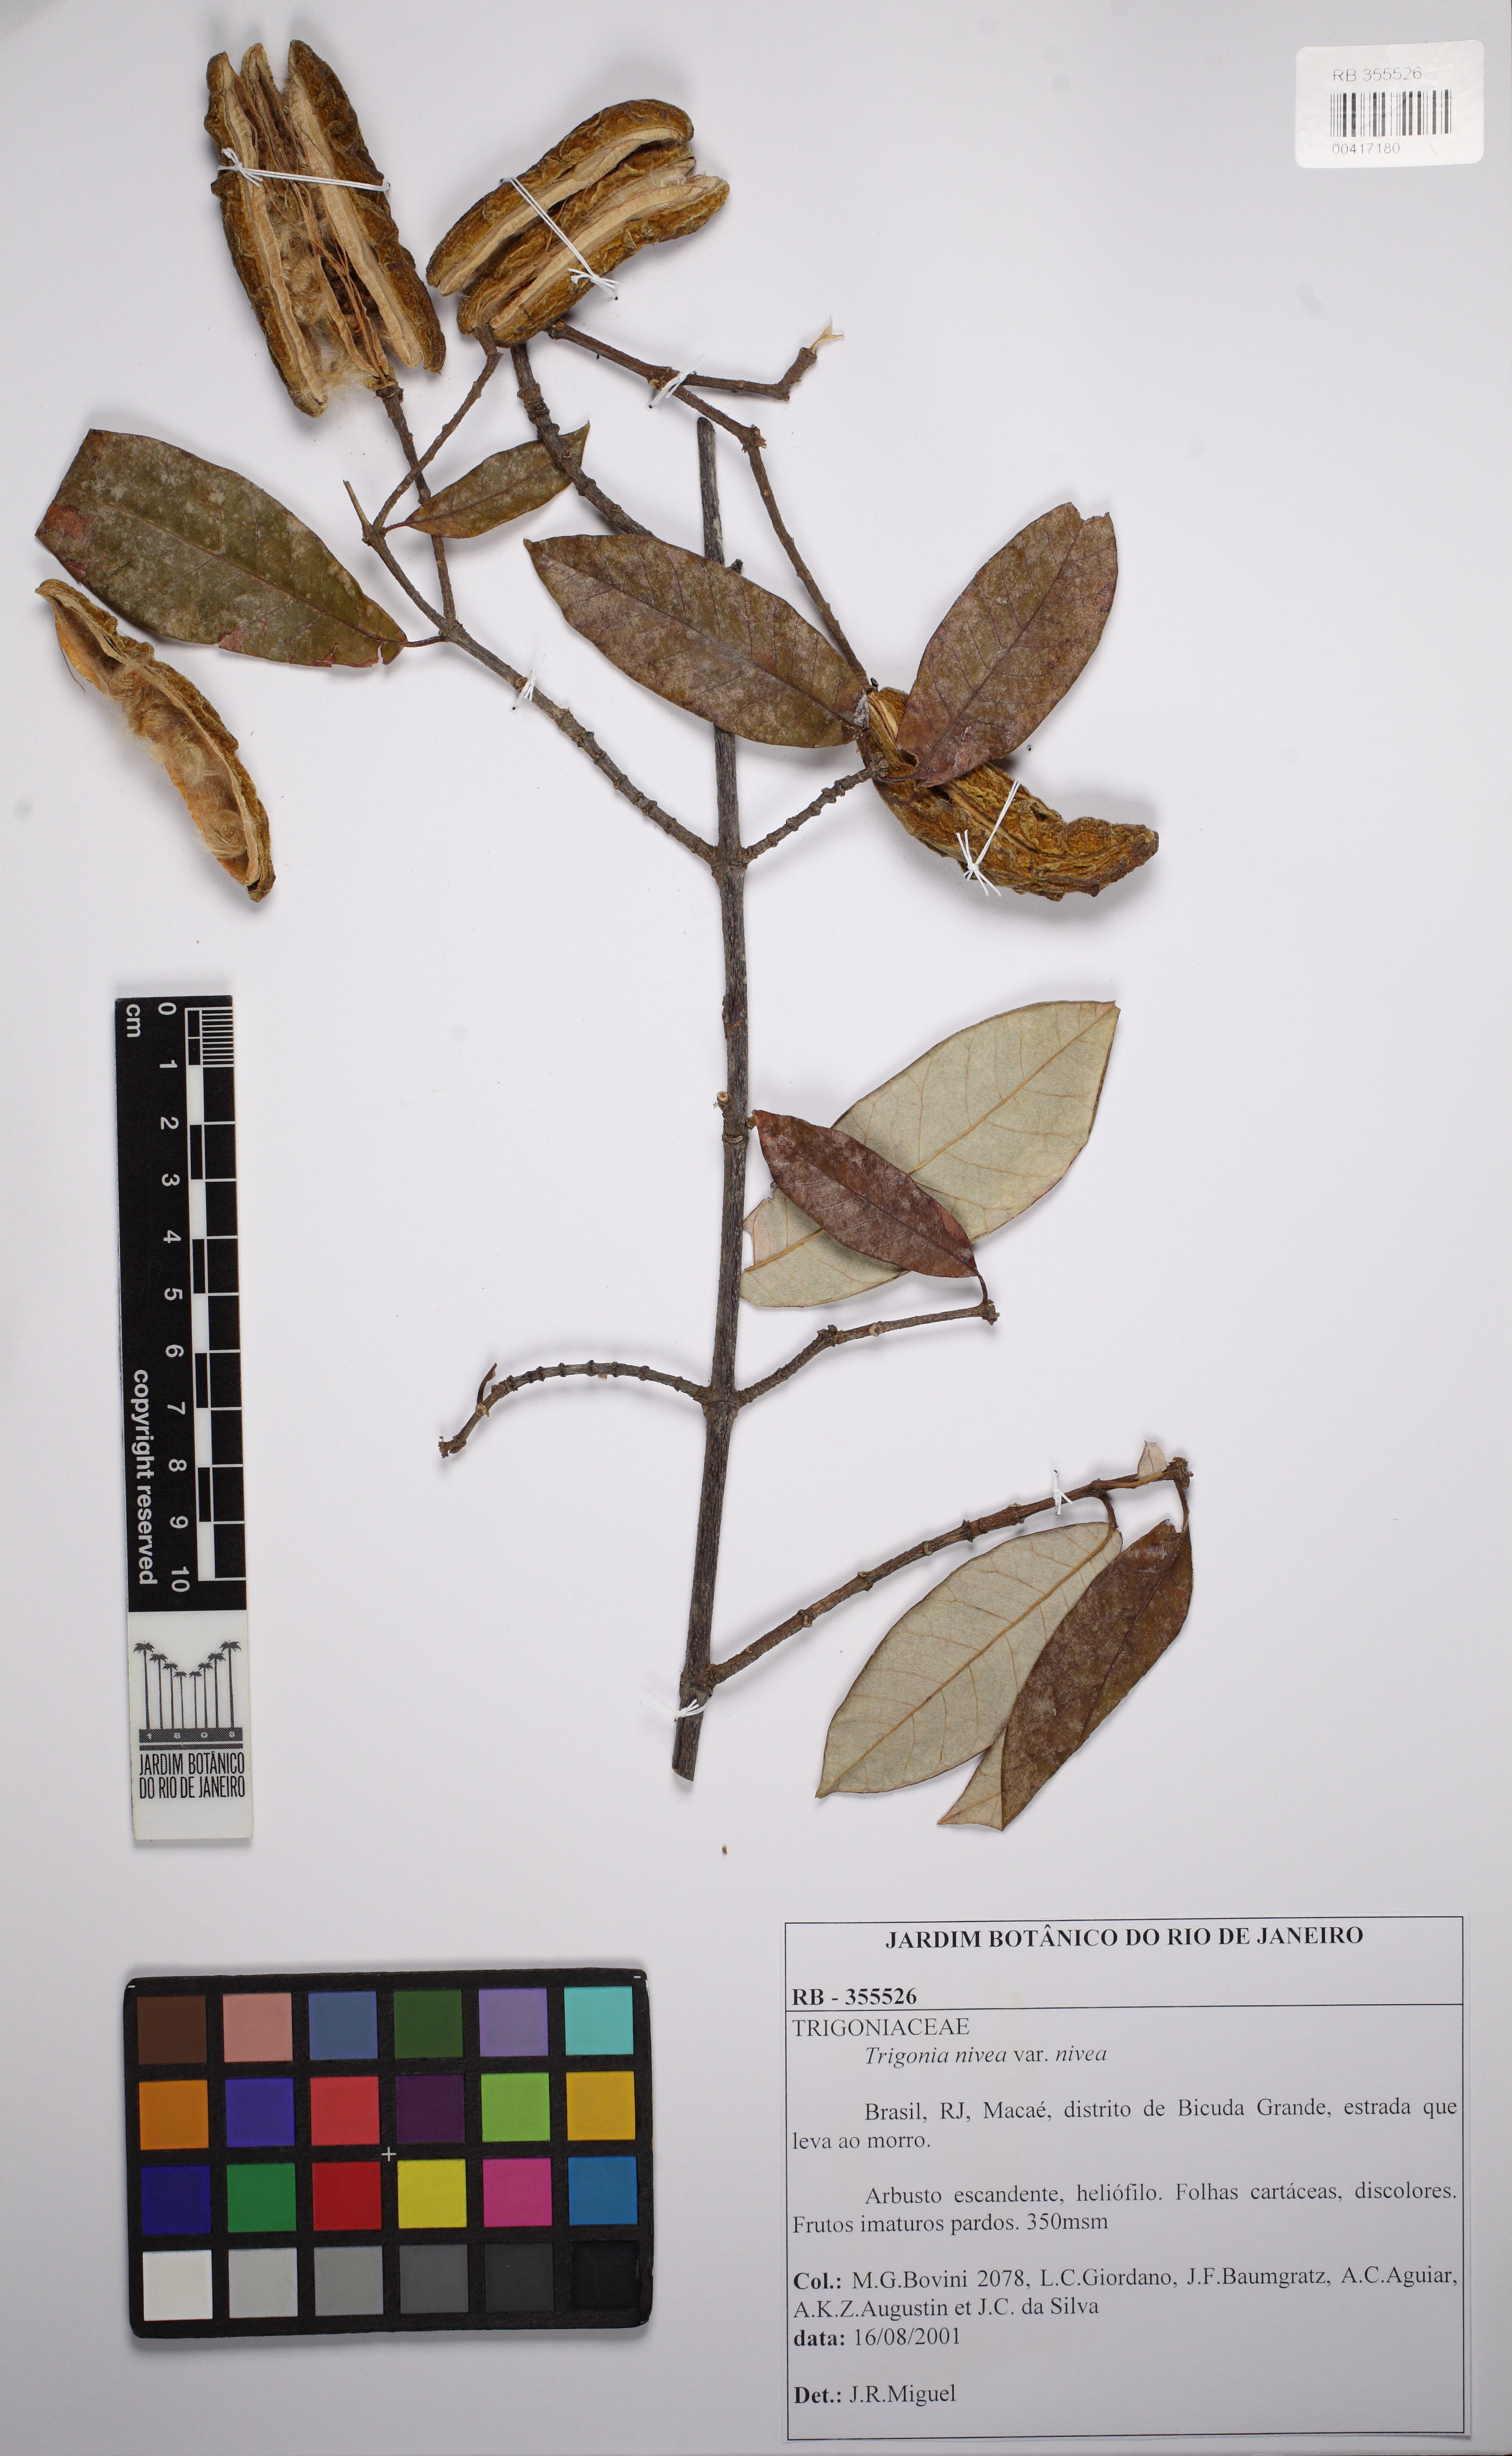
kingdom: Plantae
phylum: Tracheophyta
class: Magnoliopsida
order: Malpighiales
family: Trigoniaceae
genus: Trigonia
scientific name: Trigonia nivea
